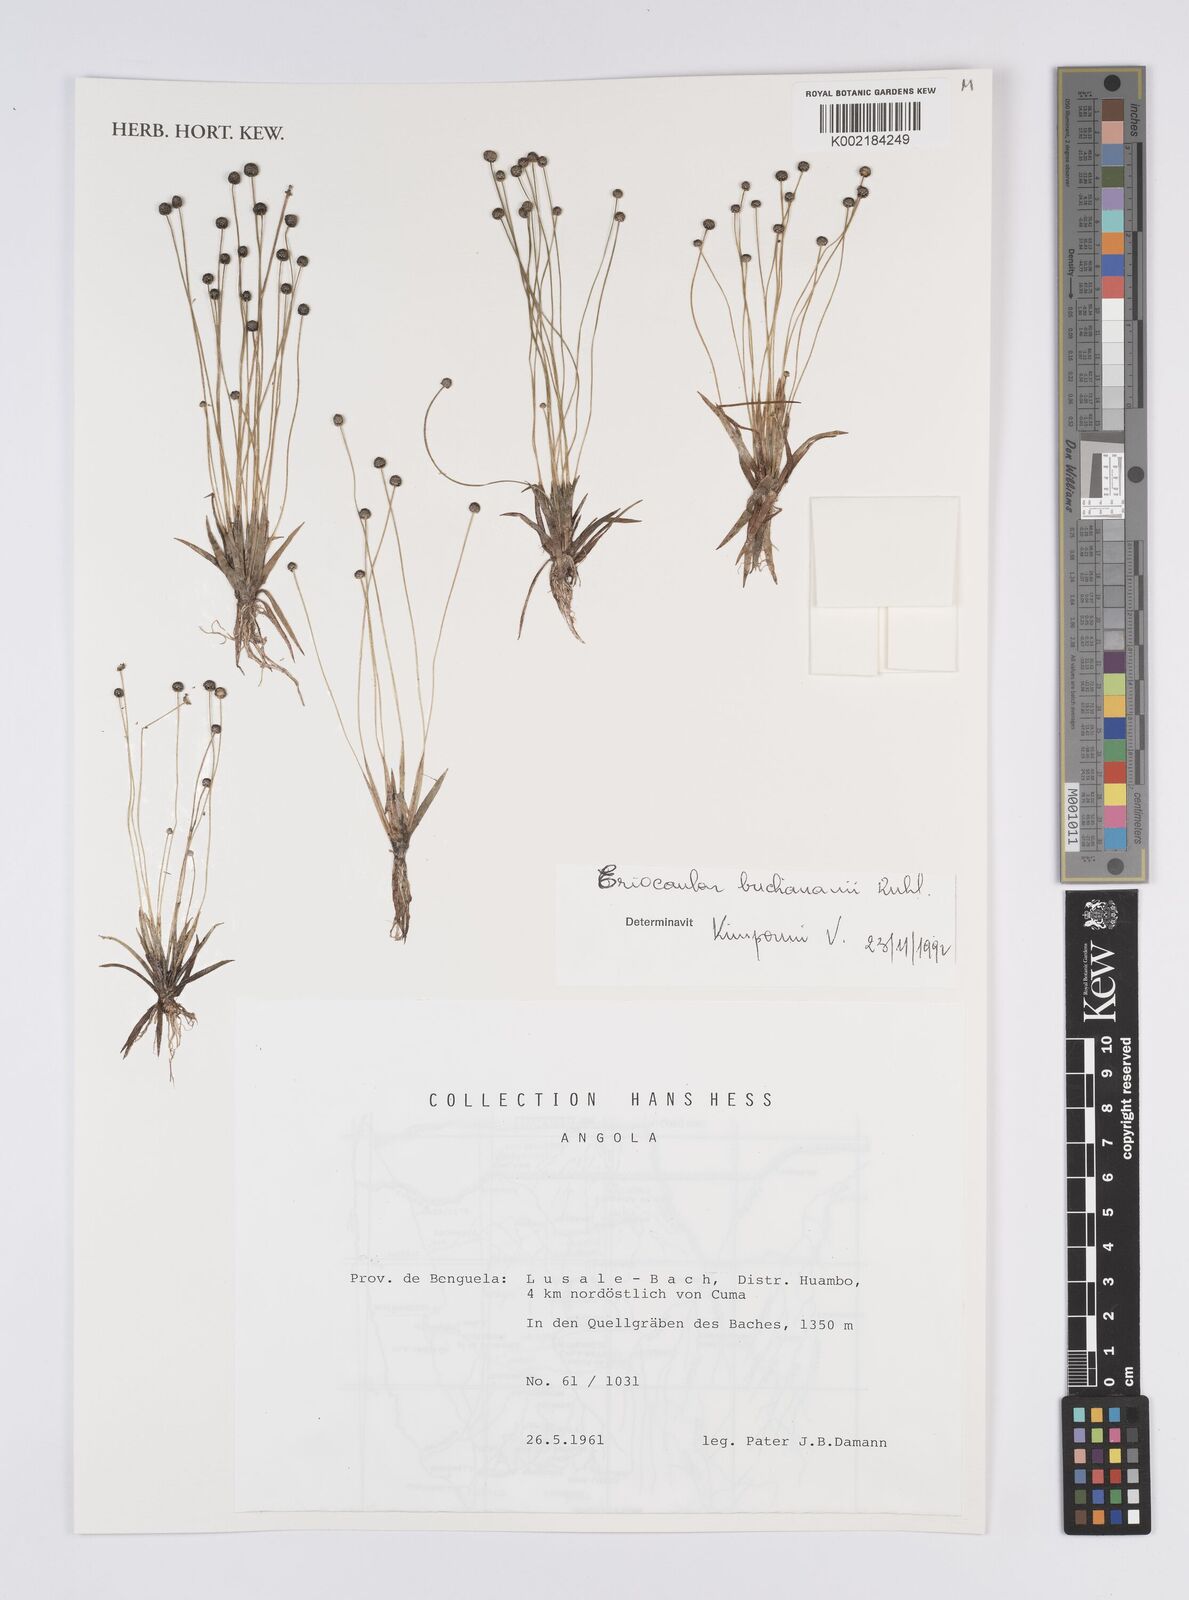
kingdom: Plantae
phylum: Tracheophyta
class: Liliopsida
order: Poales
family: Eriocaulaceae
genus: Eriocaulon
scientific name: Eriocaulon buchananii
